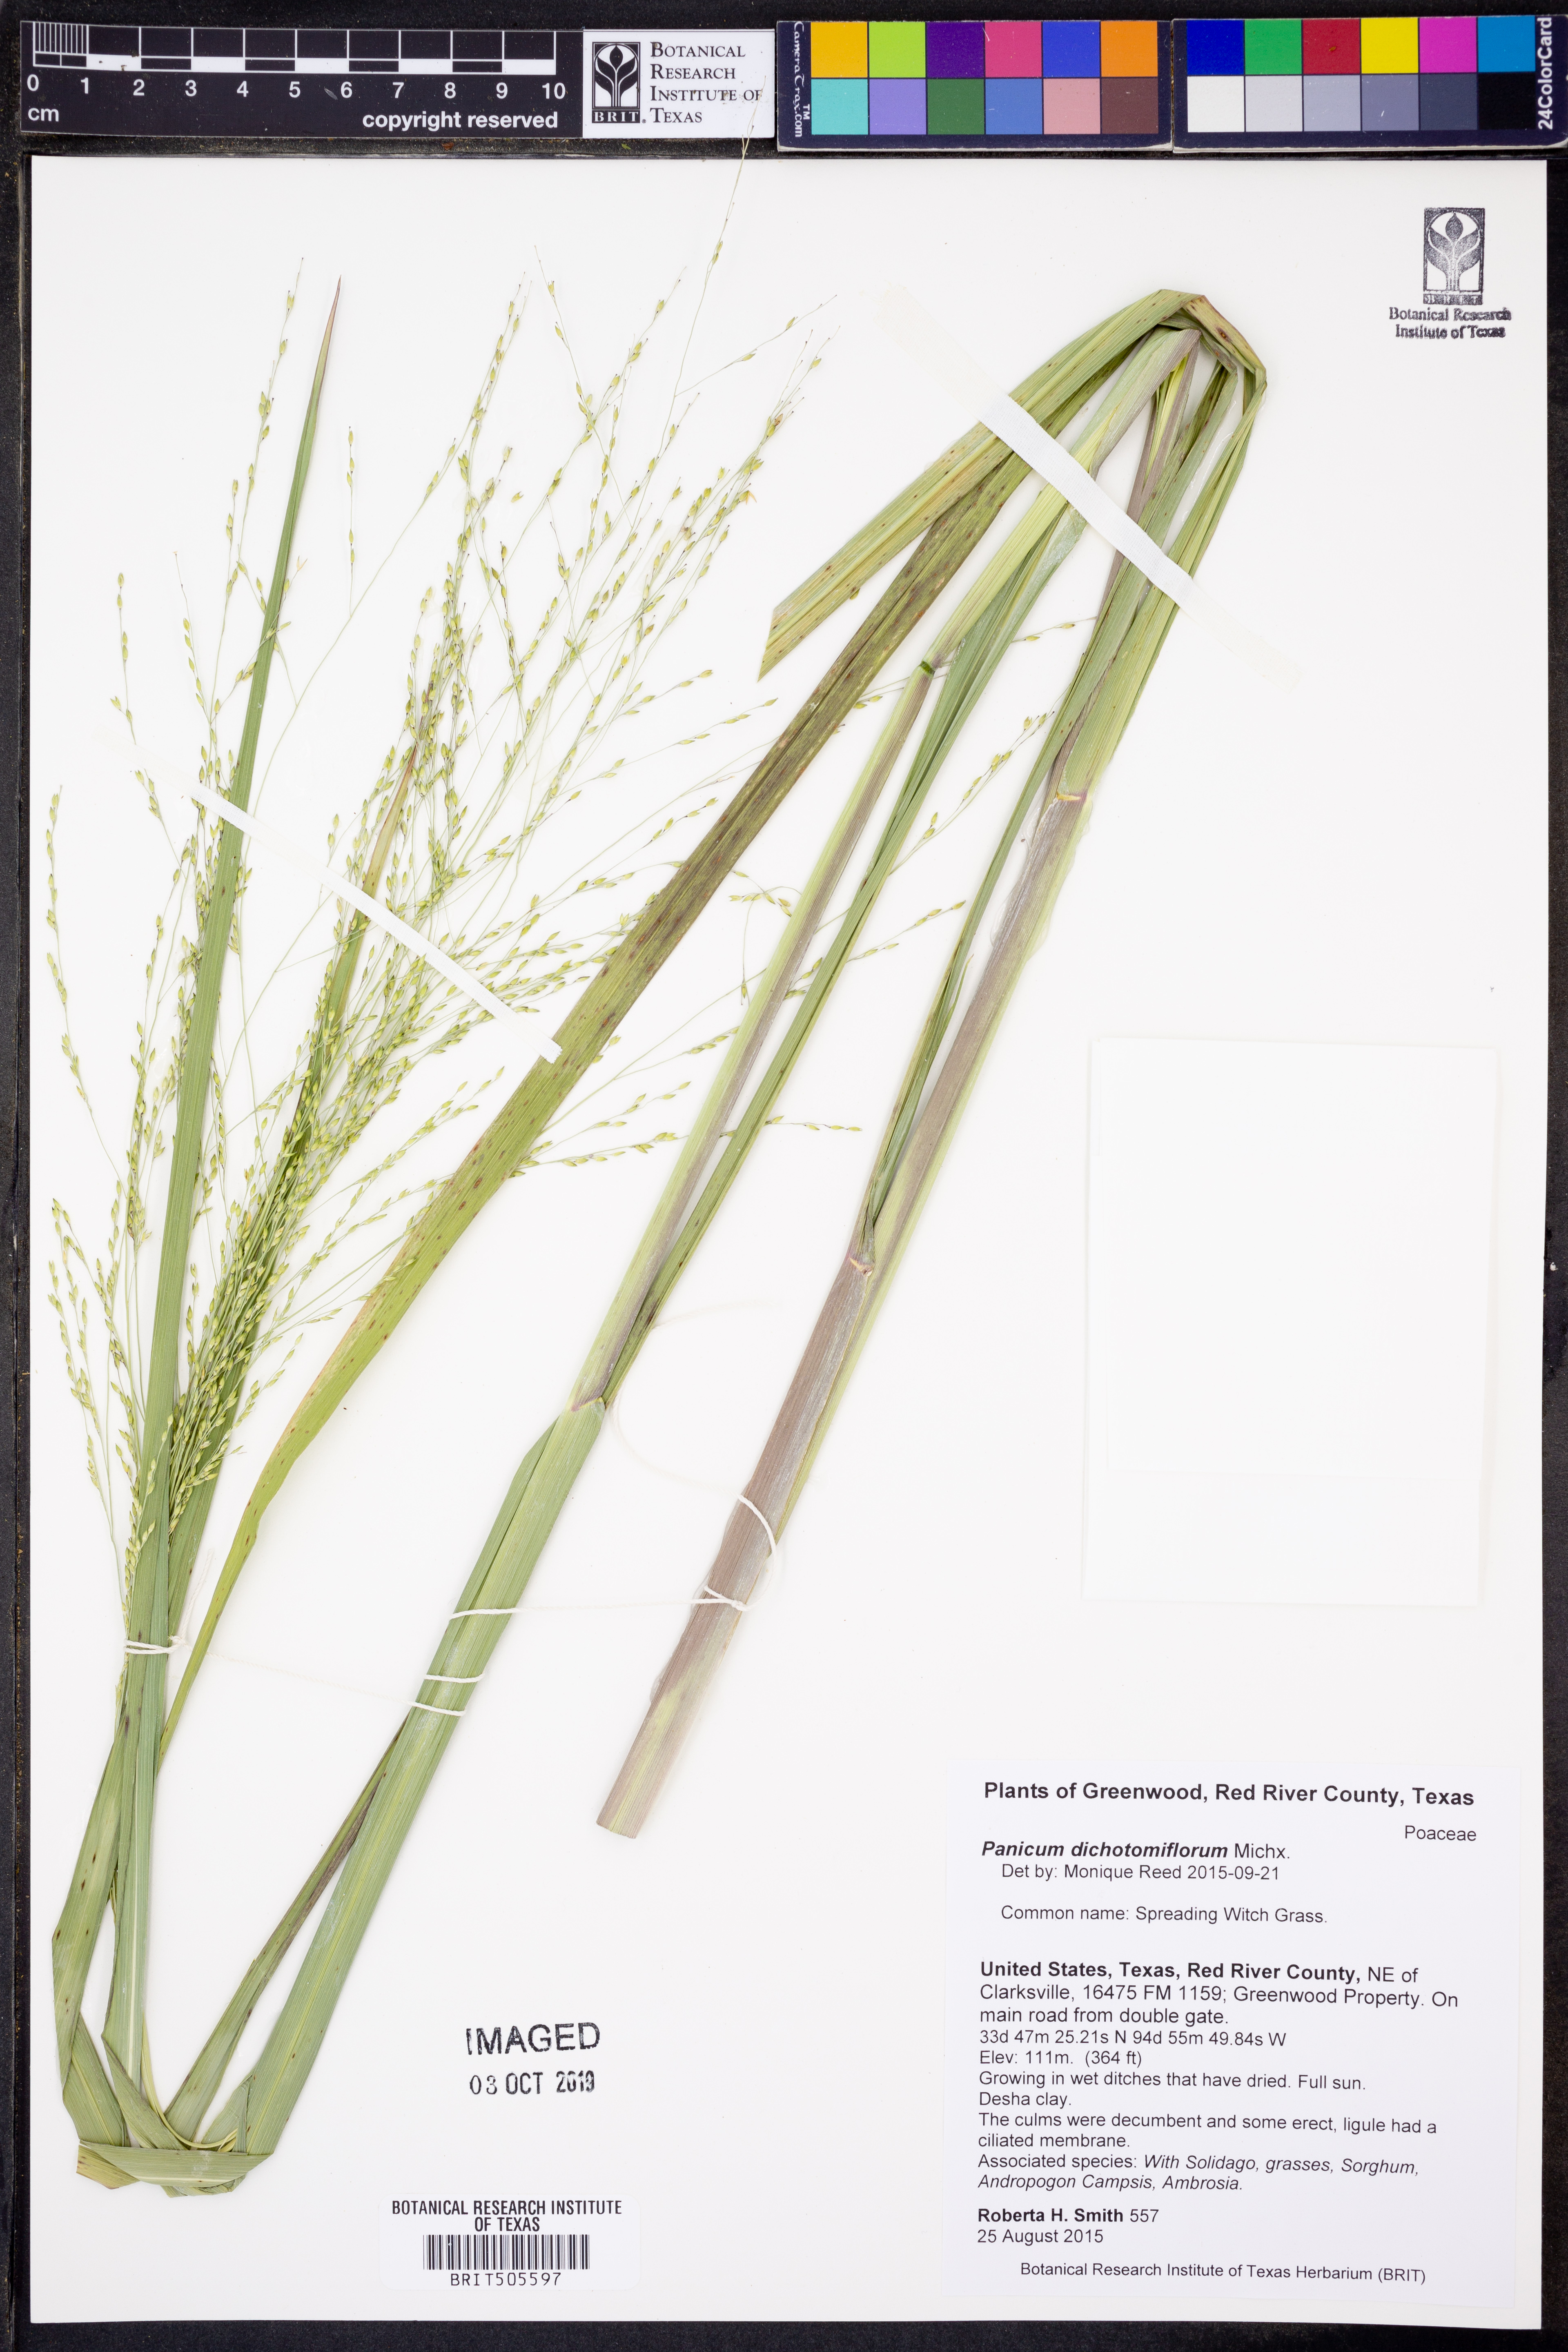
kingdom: Plantae
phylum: Tracheophyta
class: Liliopsida
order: Poales
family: Poaceae
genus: Panicum
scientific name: Panicum dichotomiflorum
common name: Autumn millet
